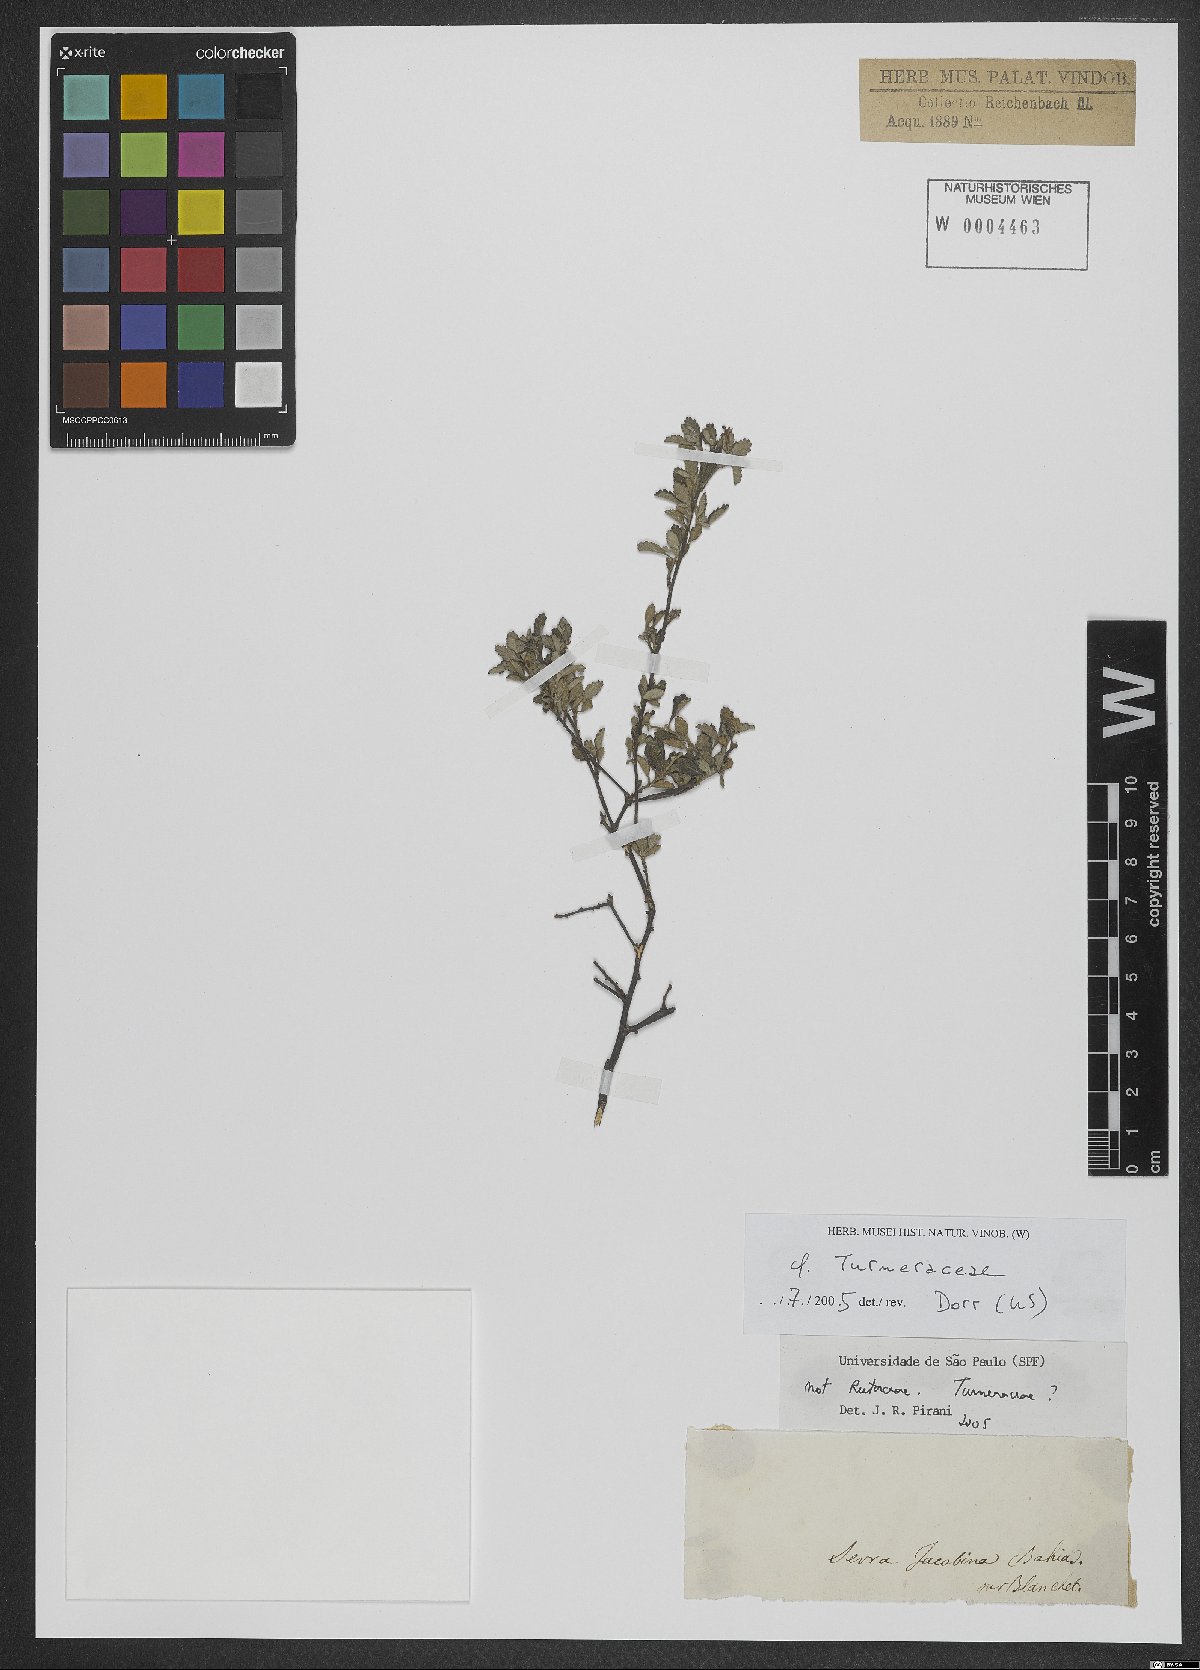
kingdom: Plantae
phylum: Tracheophyta
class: Magnoliopsida
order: Malpighiales
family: Turneraceae
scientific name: Turneraceae
